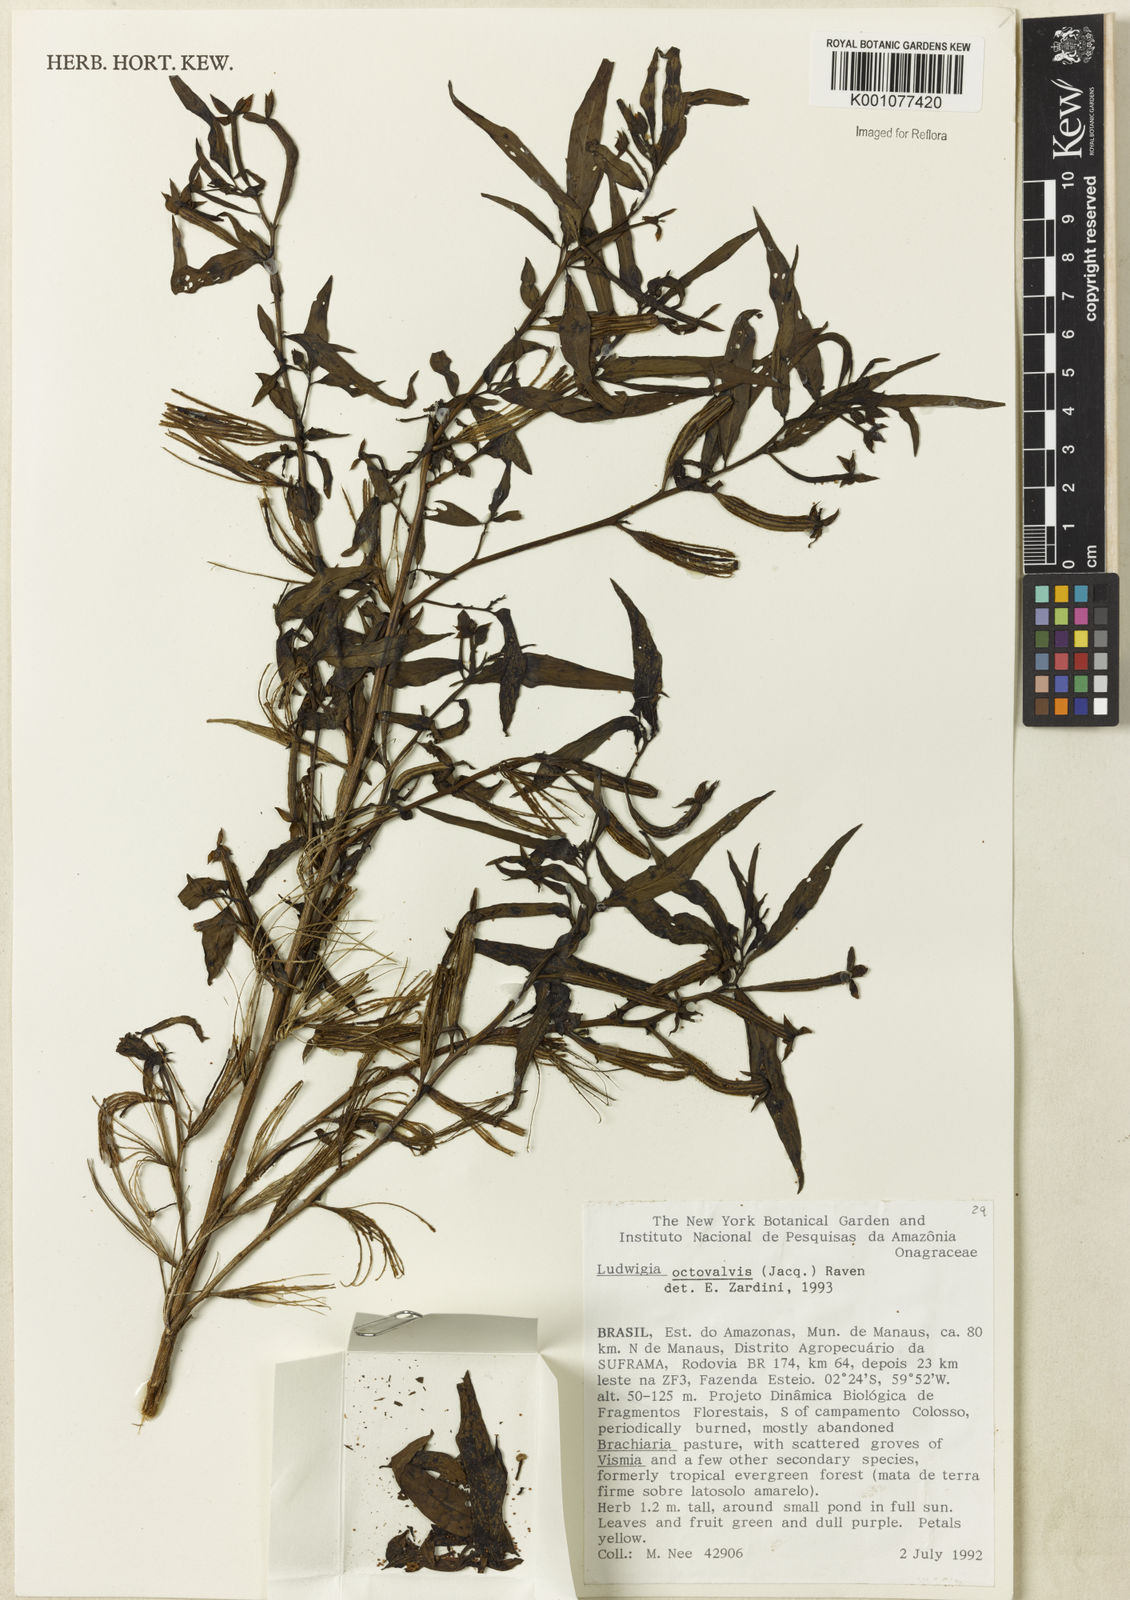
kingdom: Plantae
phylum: Tracheophyta
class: Magnoliopsida
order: Myrtales
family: Onagraceae
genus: Ludwigia
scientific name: Ludwigia octovalvis
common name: Water-primrose
